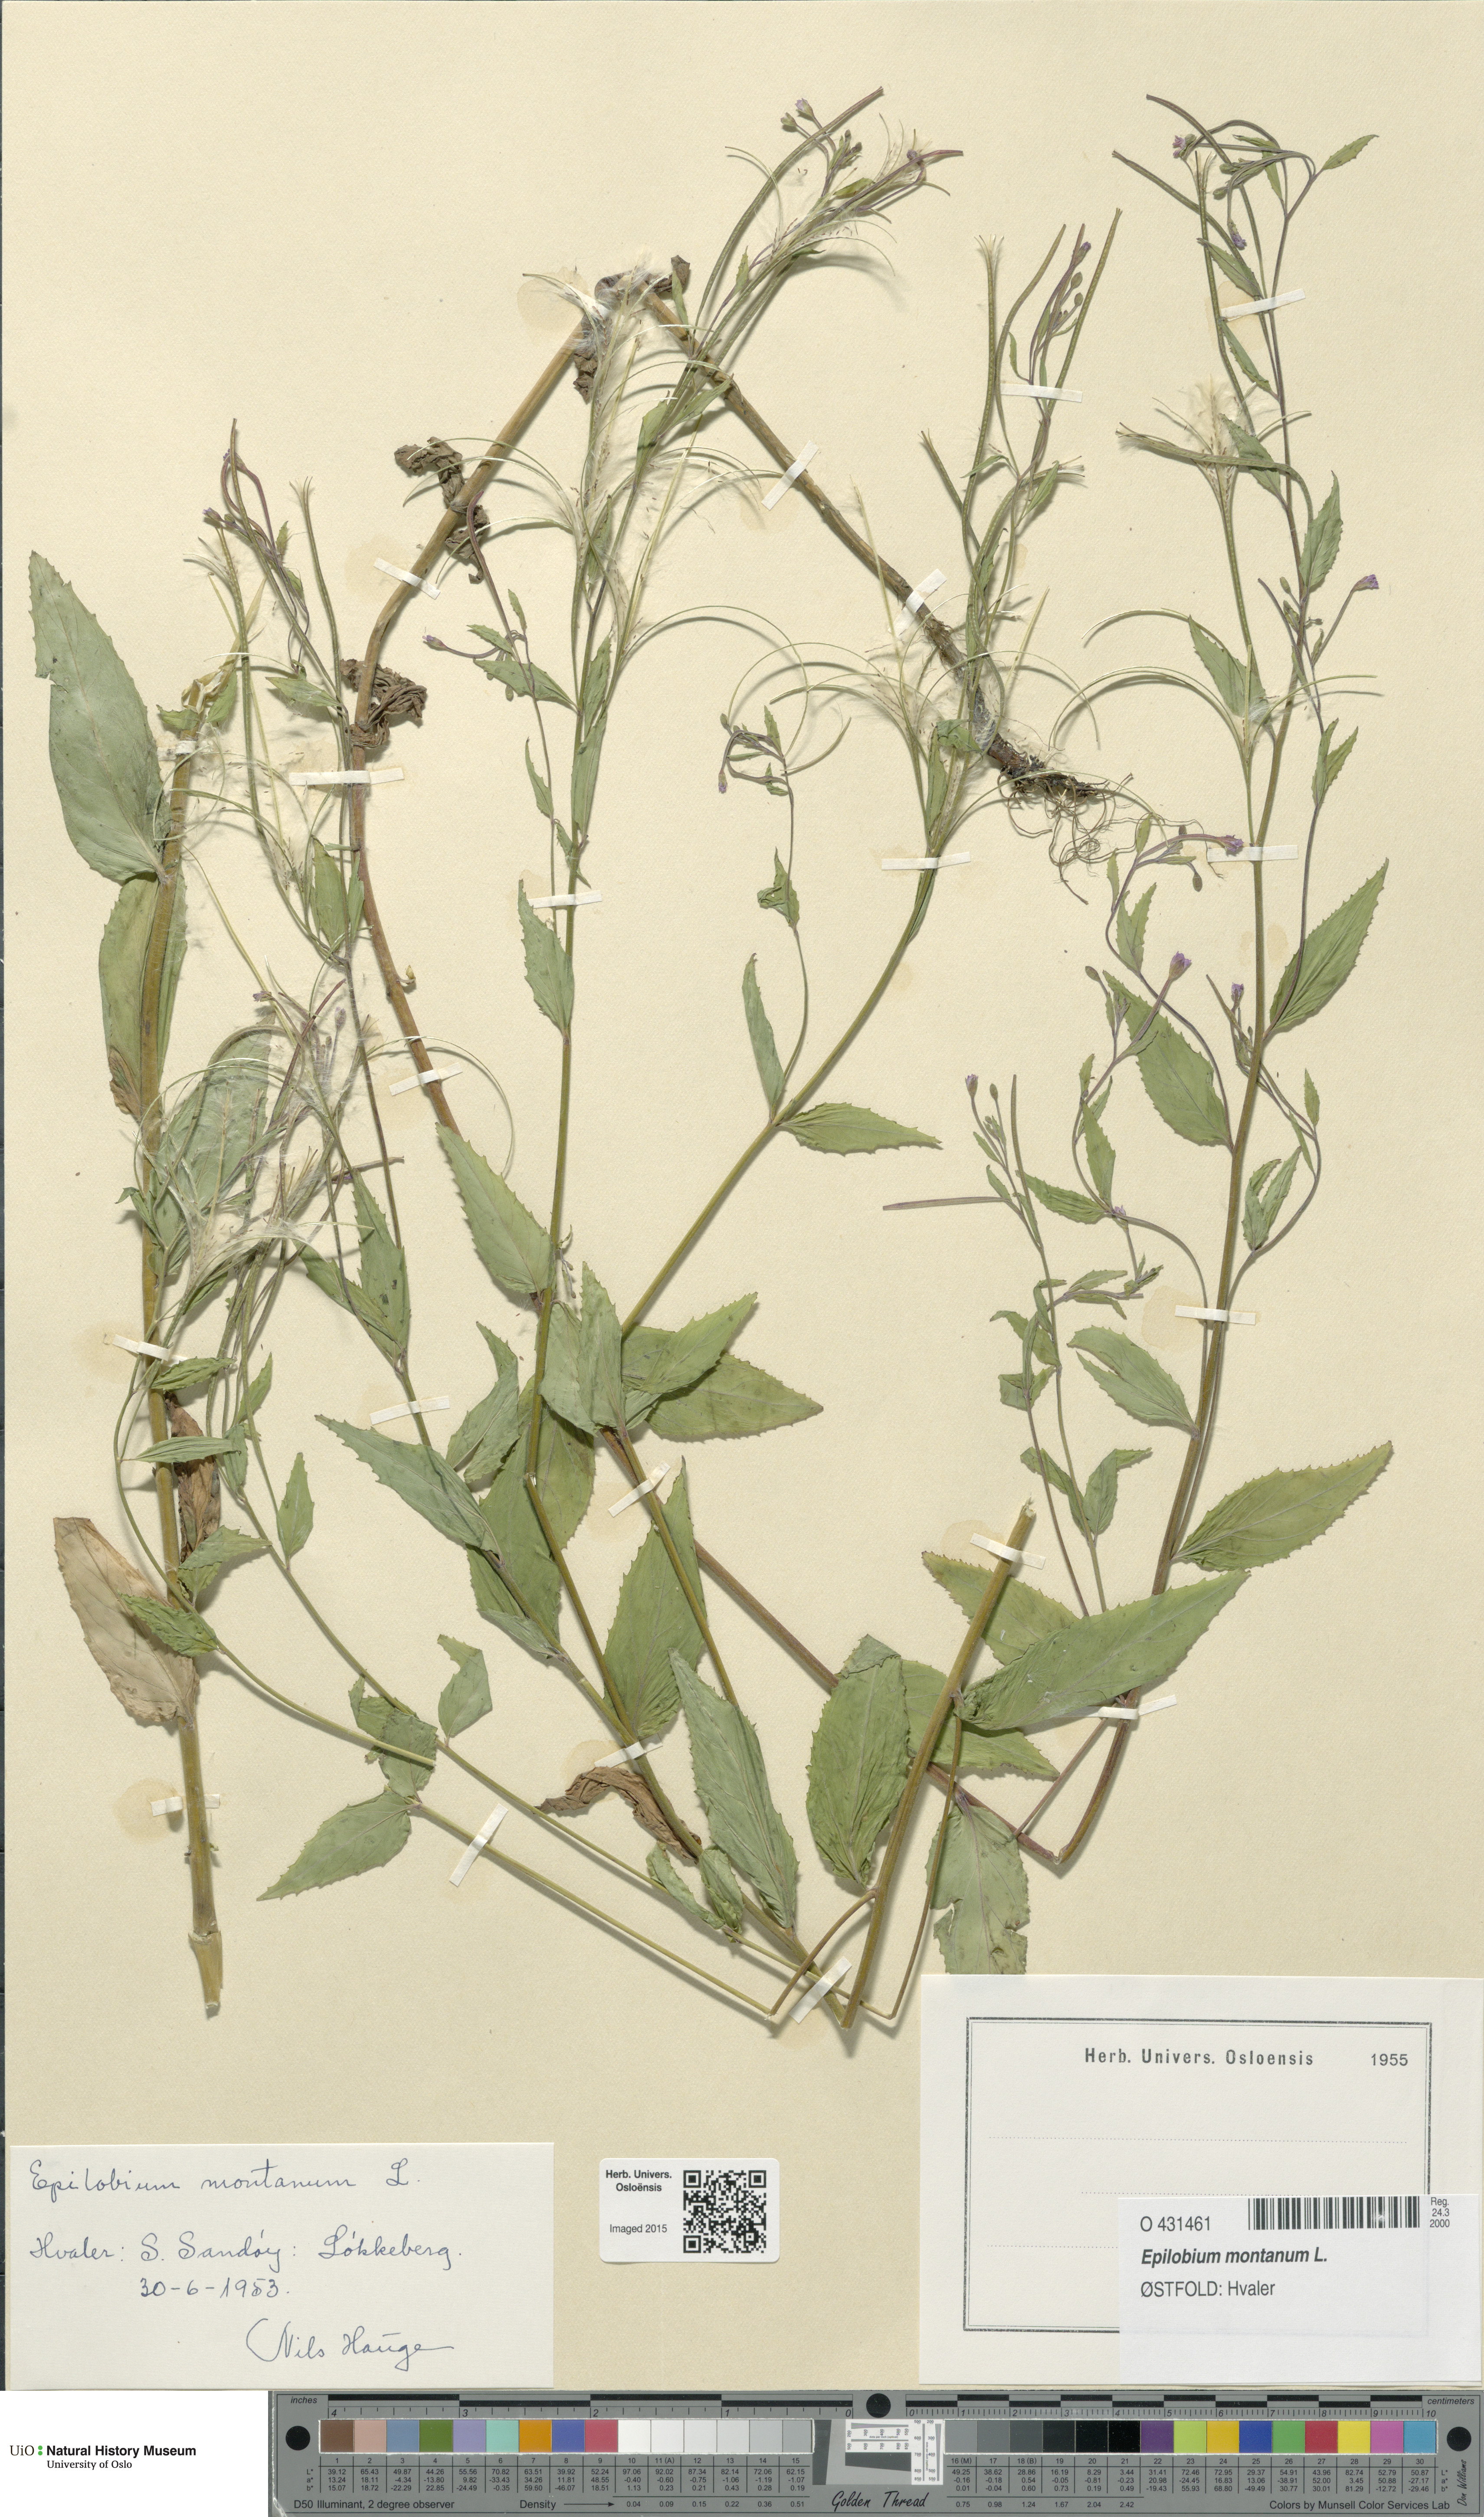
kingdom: Plantae
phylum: Tracheophyta
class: Magnoliopsida
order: Myrtales
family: Onagraceae
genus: Epilobium
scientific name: Epilobium montanum
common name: Broad-leaved willowherb
